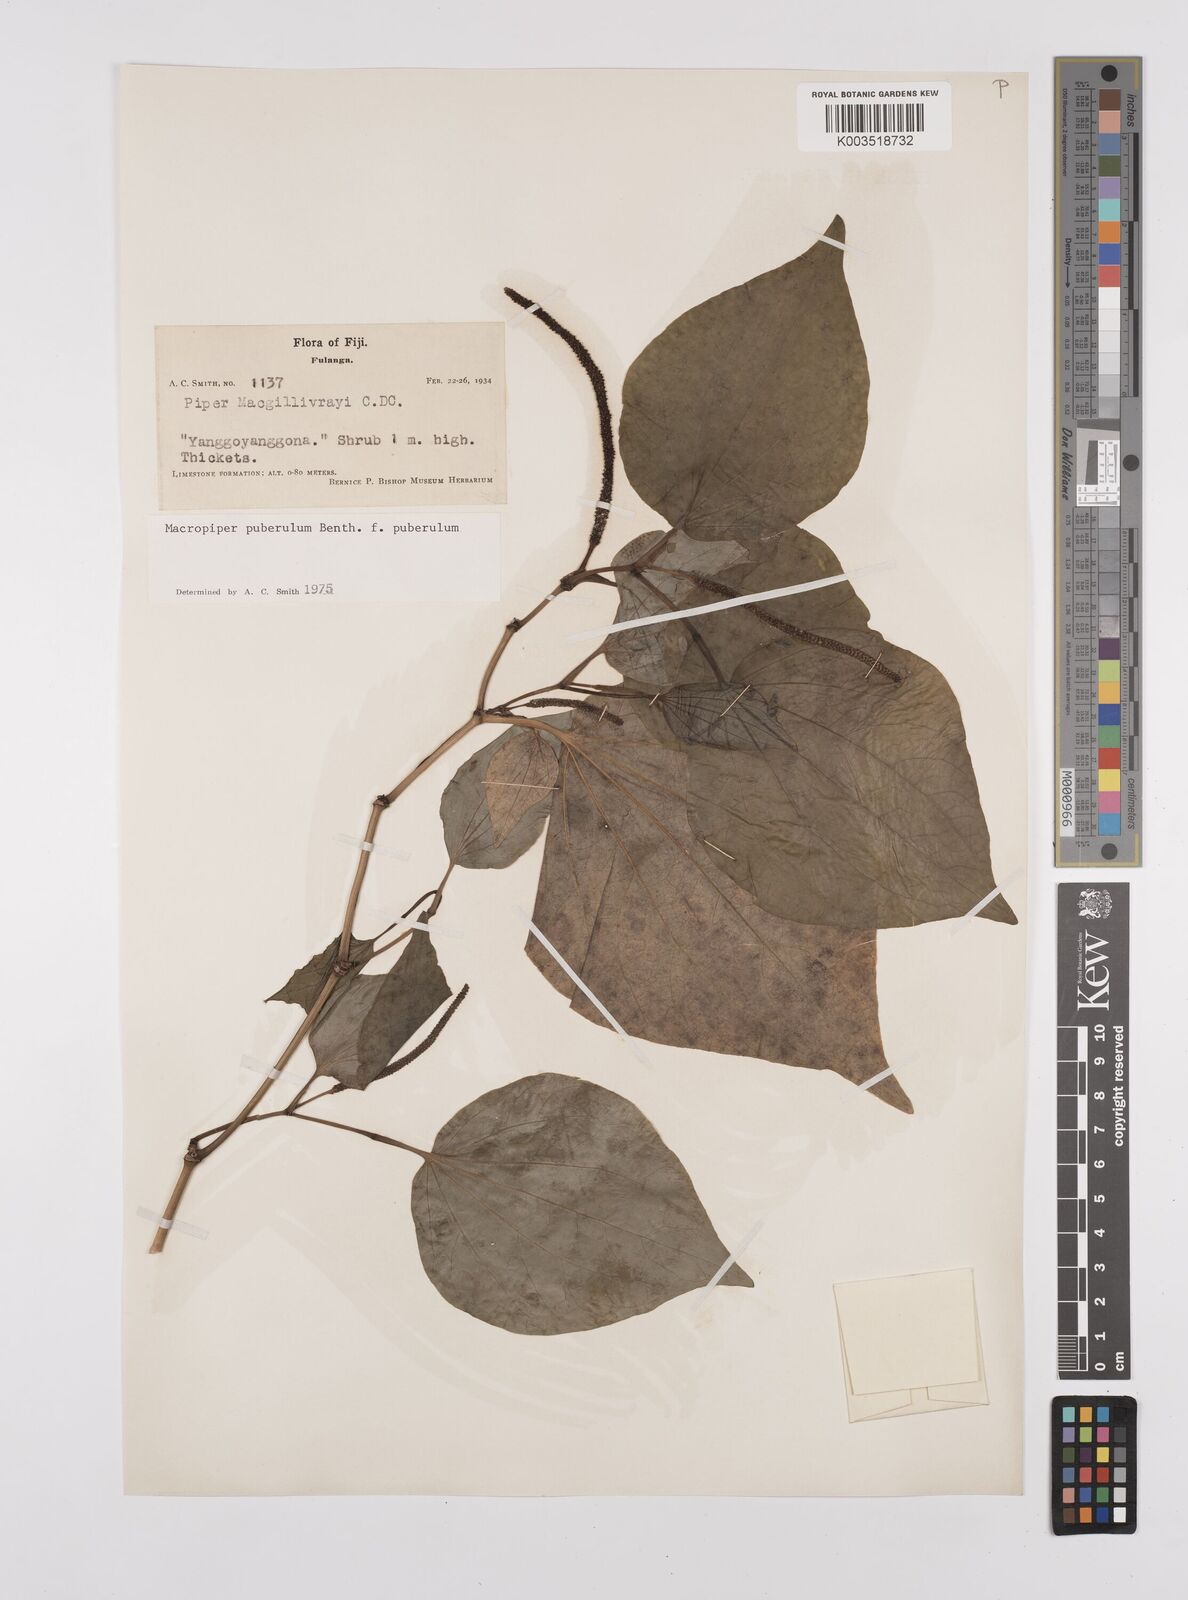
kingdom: Plantae
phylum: Tracheophyta
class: Magnoliopsida
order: Piperales
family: Piperaceae
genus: Macropiper
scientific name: Macropiper puberulum
